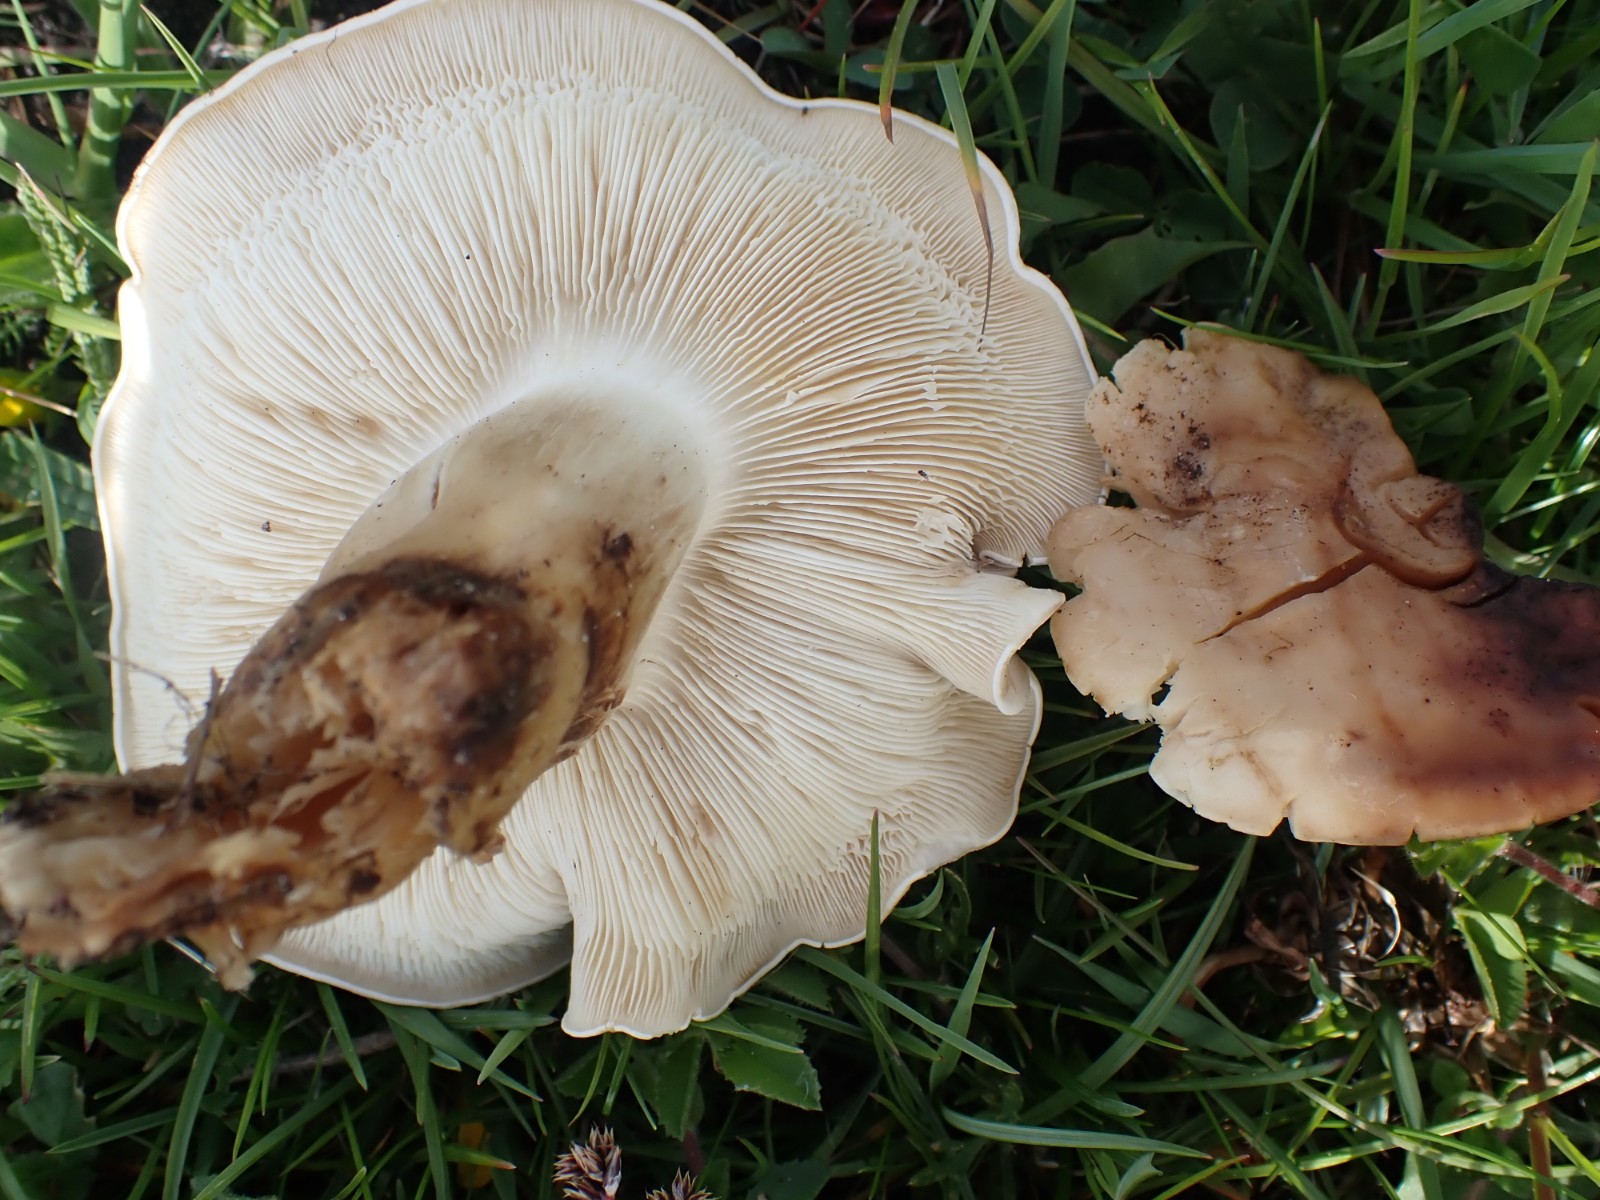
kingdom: Fungi
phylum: Basidiomycota
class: Agaricomycetes
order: Agaricales
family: Lyophyllaceae
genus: Calocybe
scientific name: Calocybe gambosa
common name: vårmusseron
